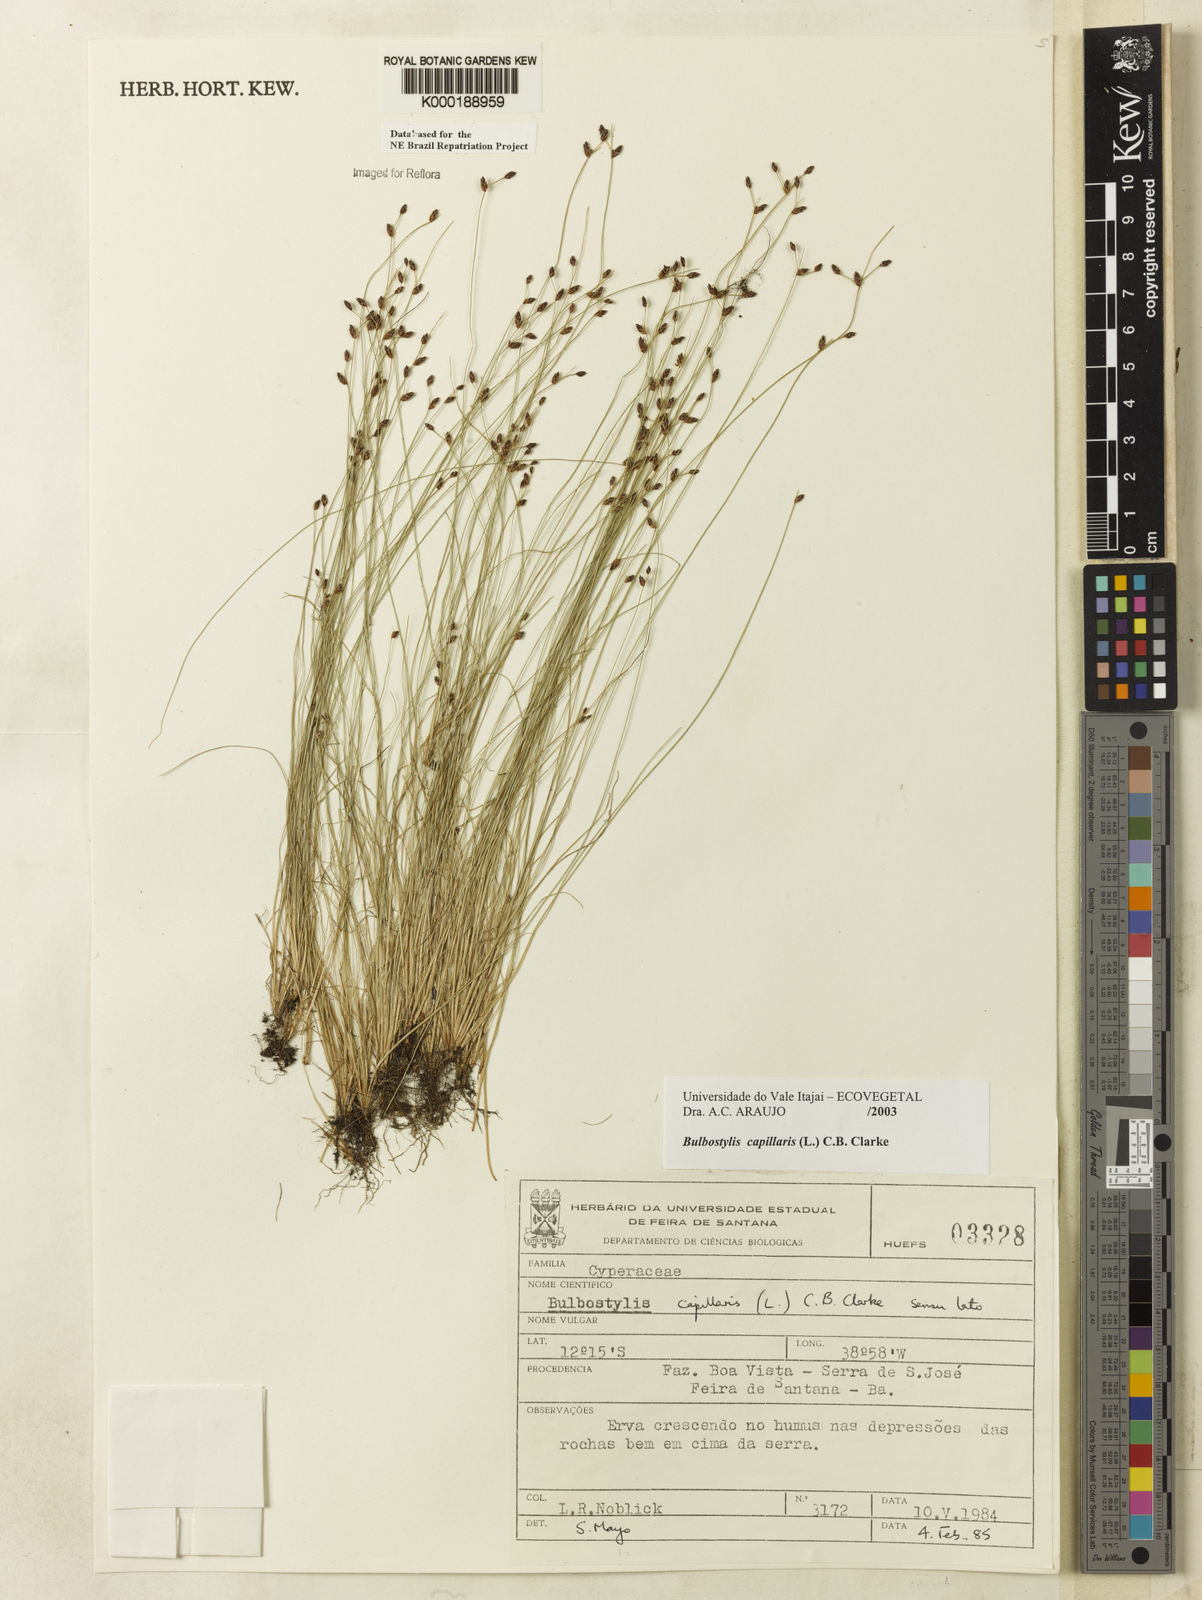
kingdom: Plantae
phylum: Tracheophyta
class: Liliopsida
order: Poales
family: Cyperaceae
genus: Bulbostylis
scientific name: Bulbostylis capillaris
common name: Densetuft hairsedge
